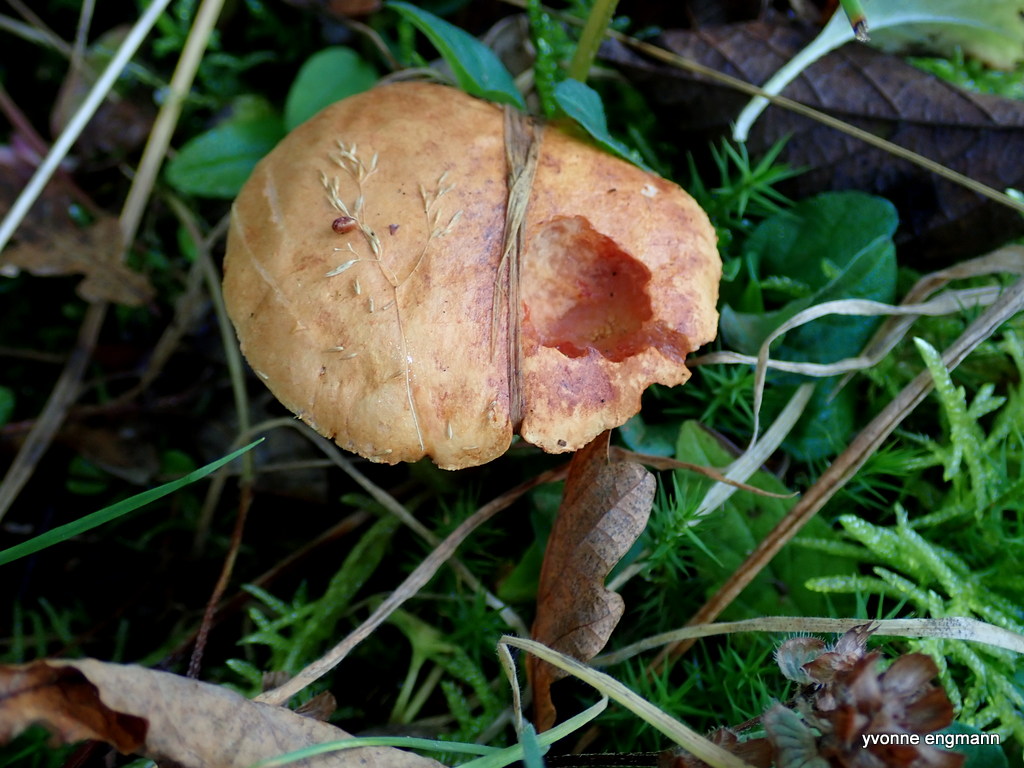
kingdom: Fungi
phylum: Basidiomycota
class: Agaricomycetes
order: Boletales
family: Boletaceae
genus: Chalciporus
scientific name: Chalciporus piperatus
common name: peberrørhat
